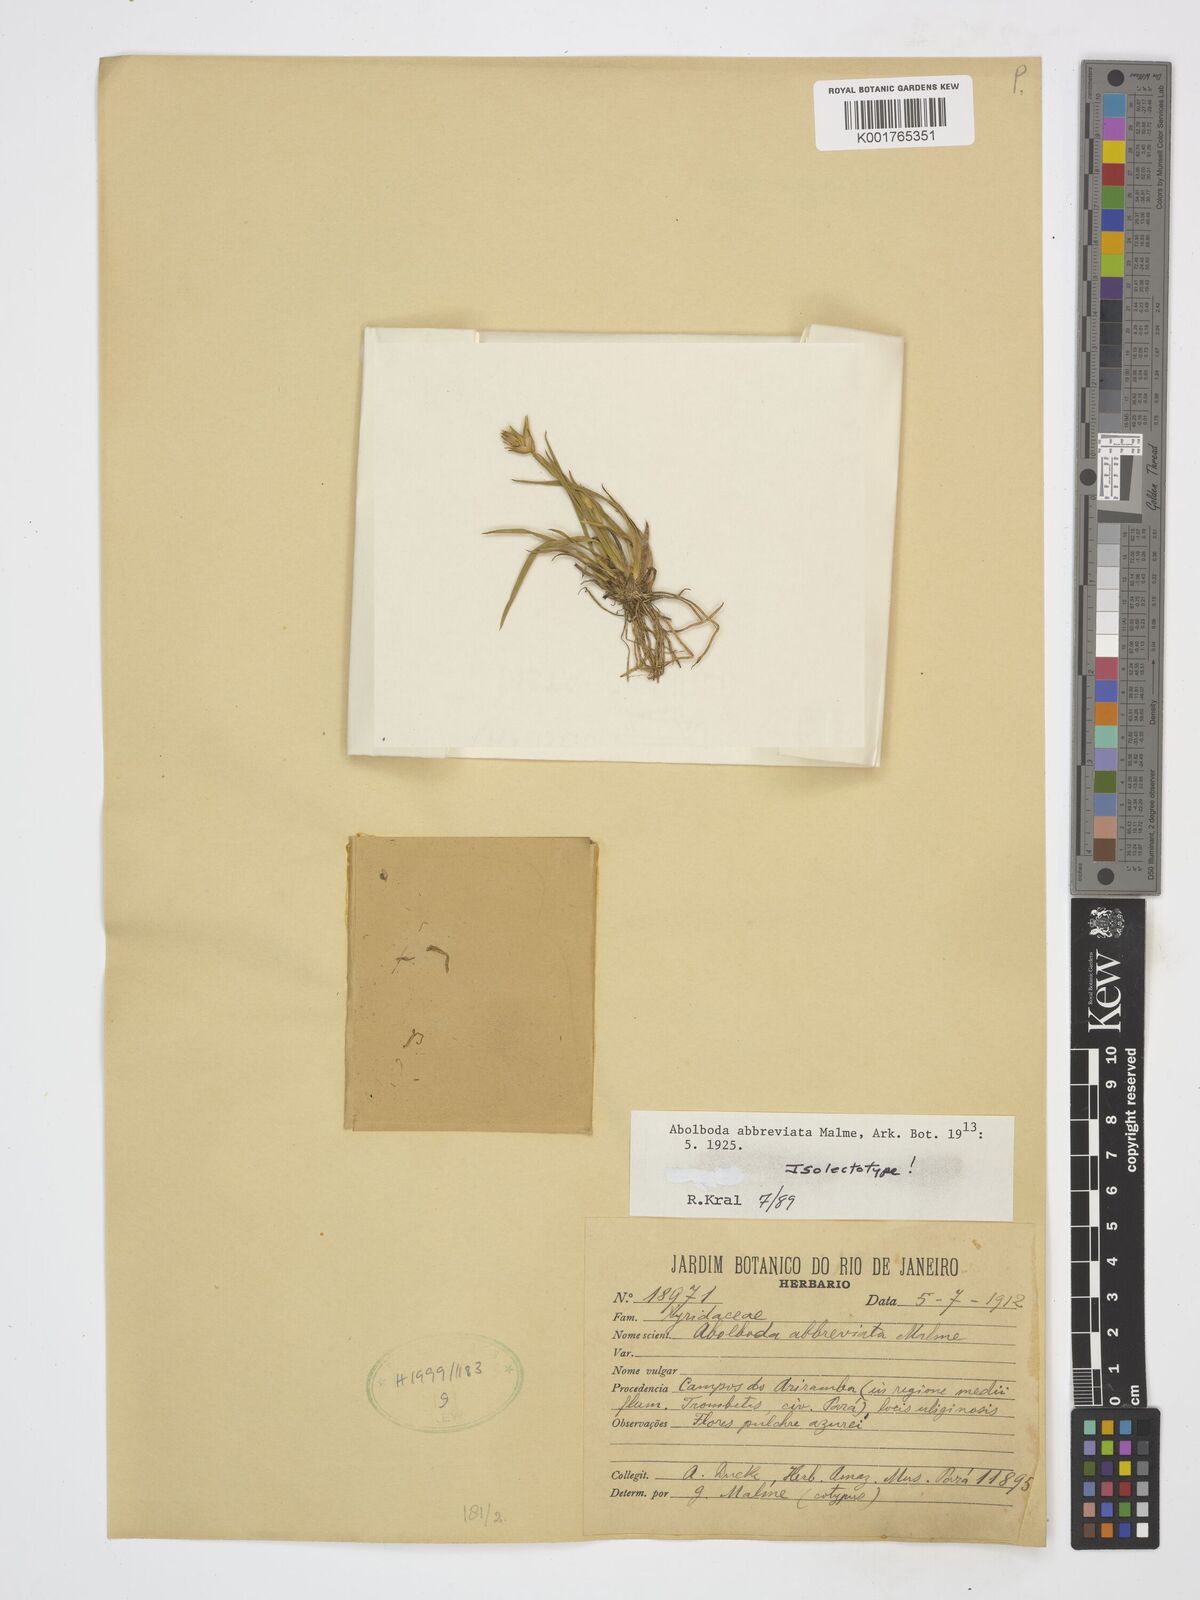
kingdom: Plantae
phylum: Tracheophyta
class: Liliopsida
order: Poales
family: Xyridaceae
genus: Abolboda
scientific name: Abolboda abbreviata
